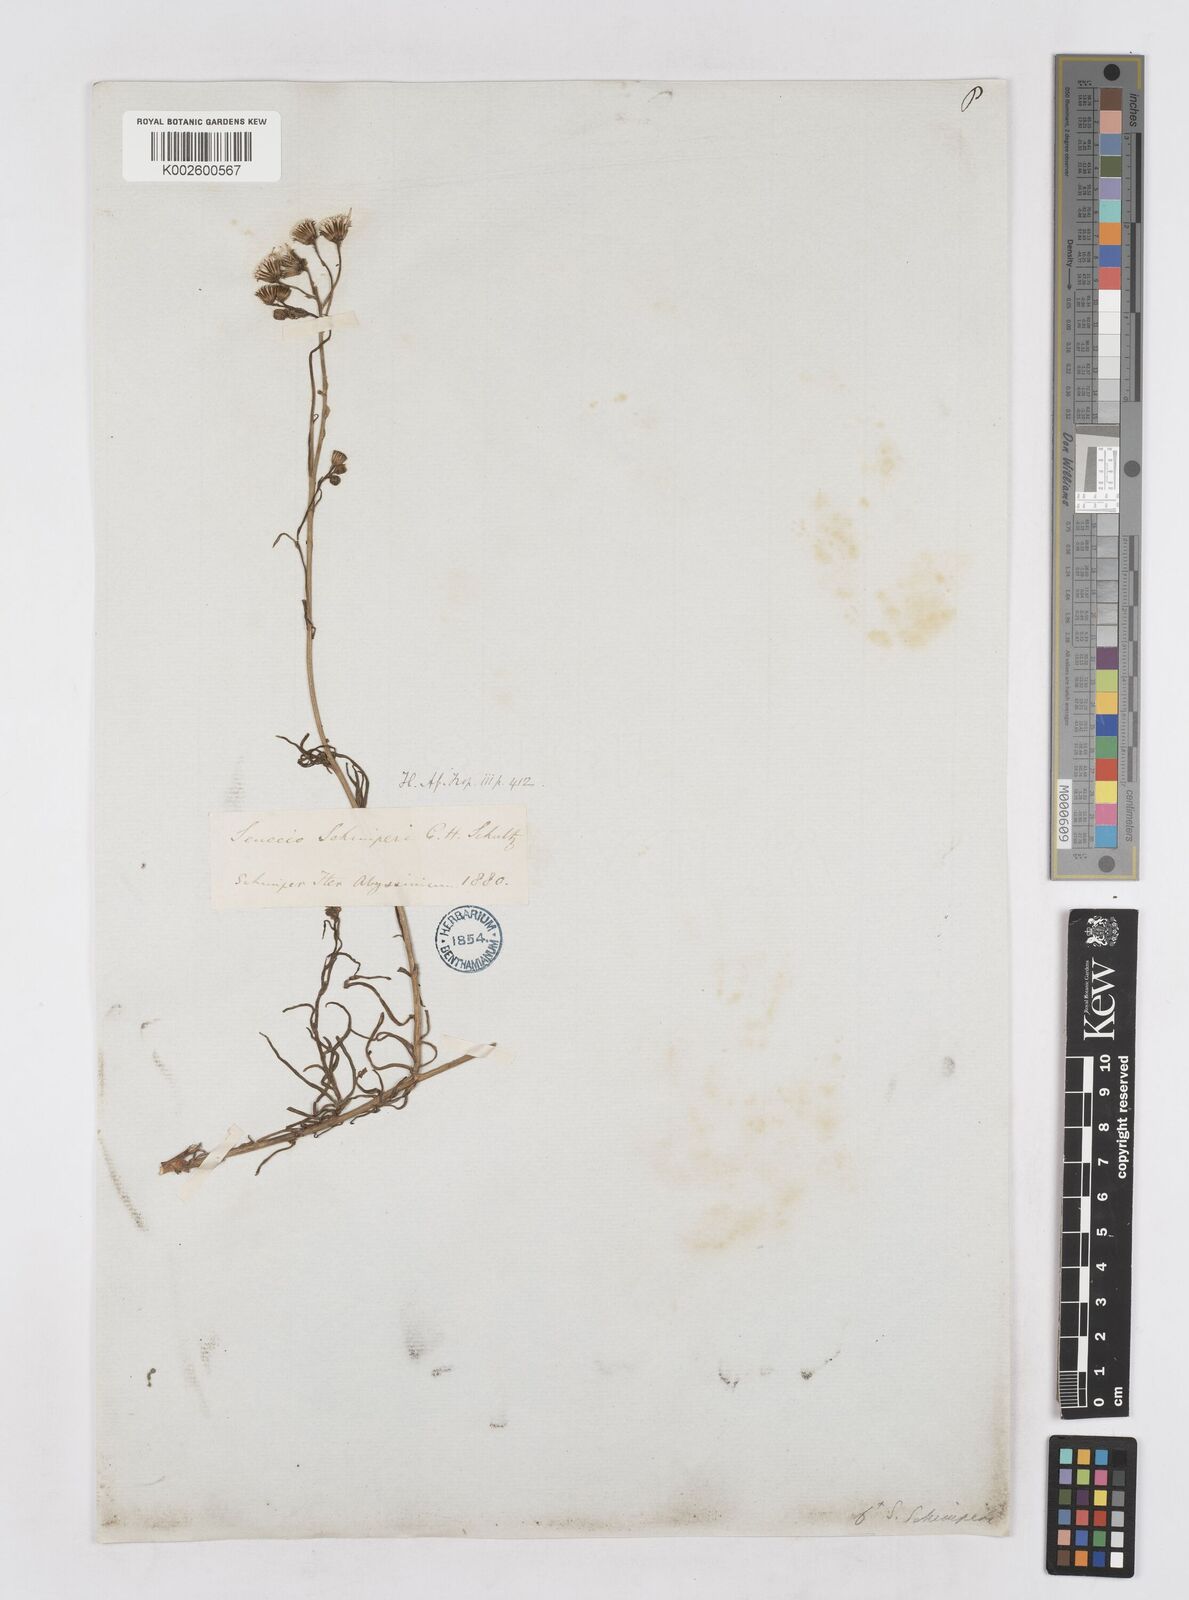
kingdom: Plantae
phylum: Tracheophyta
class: Magnoliopsida
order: Asterales
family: Asteraceae
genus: Senecio
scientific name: Senecio schimperi
